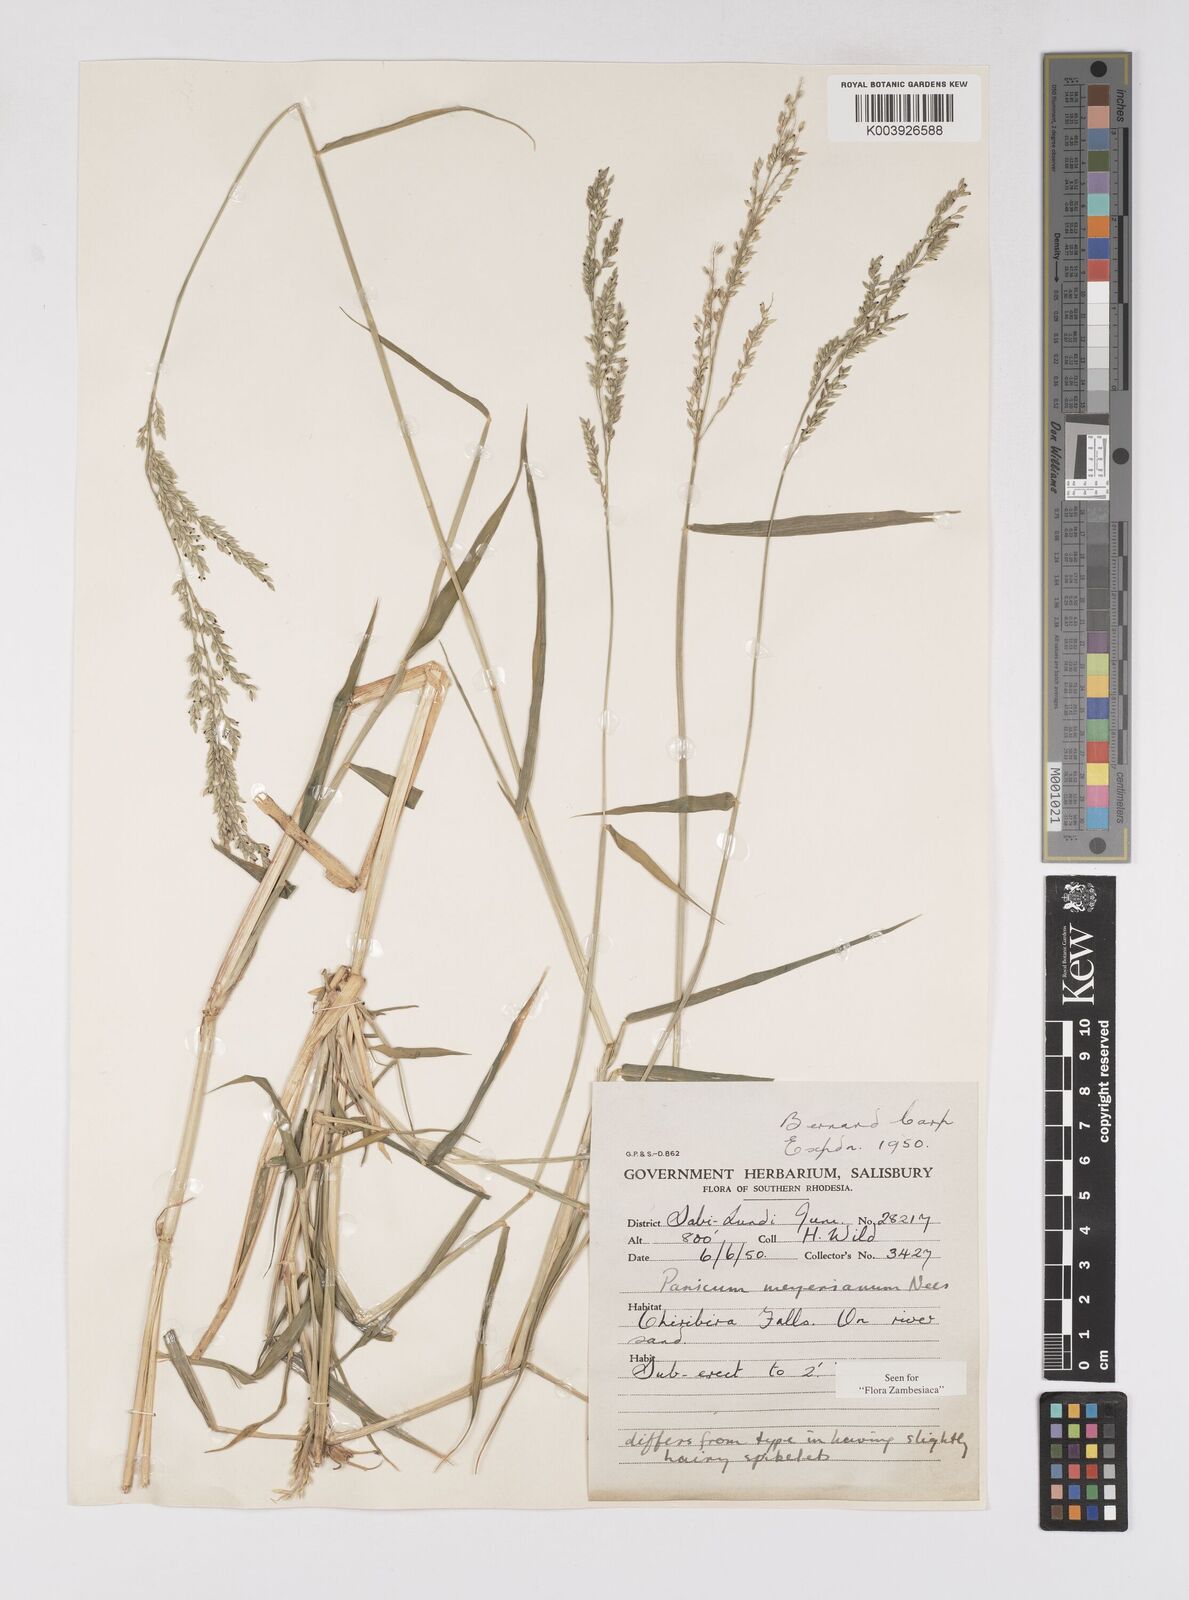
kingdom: Plantae
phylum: Tracheophyta
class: Liliopsida
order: Poales
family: Poaceae
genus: Eriochloa
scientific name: Eriochloa meyeriana
